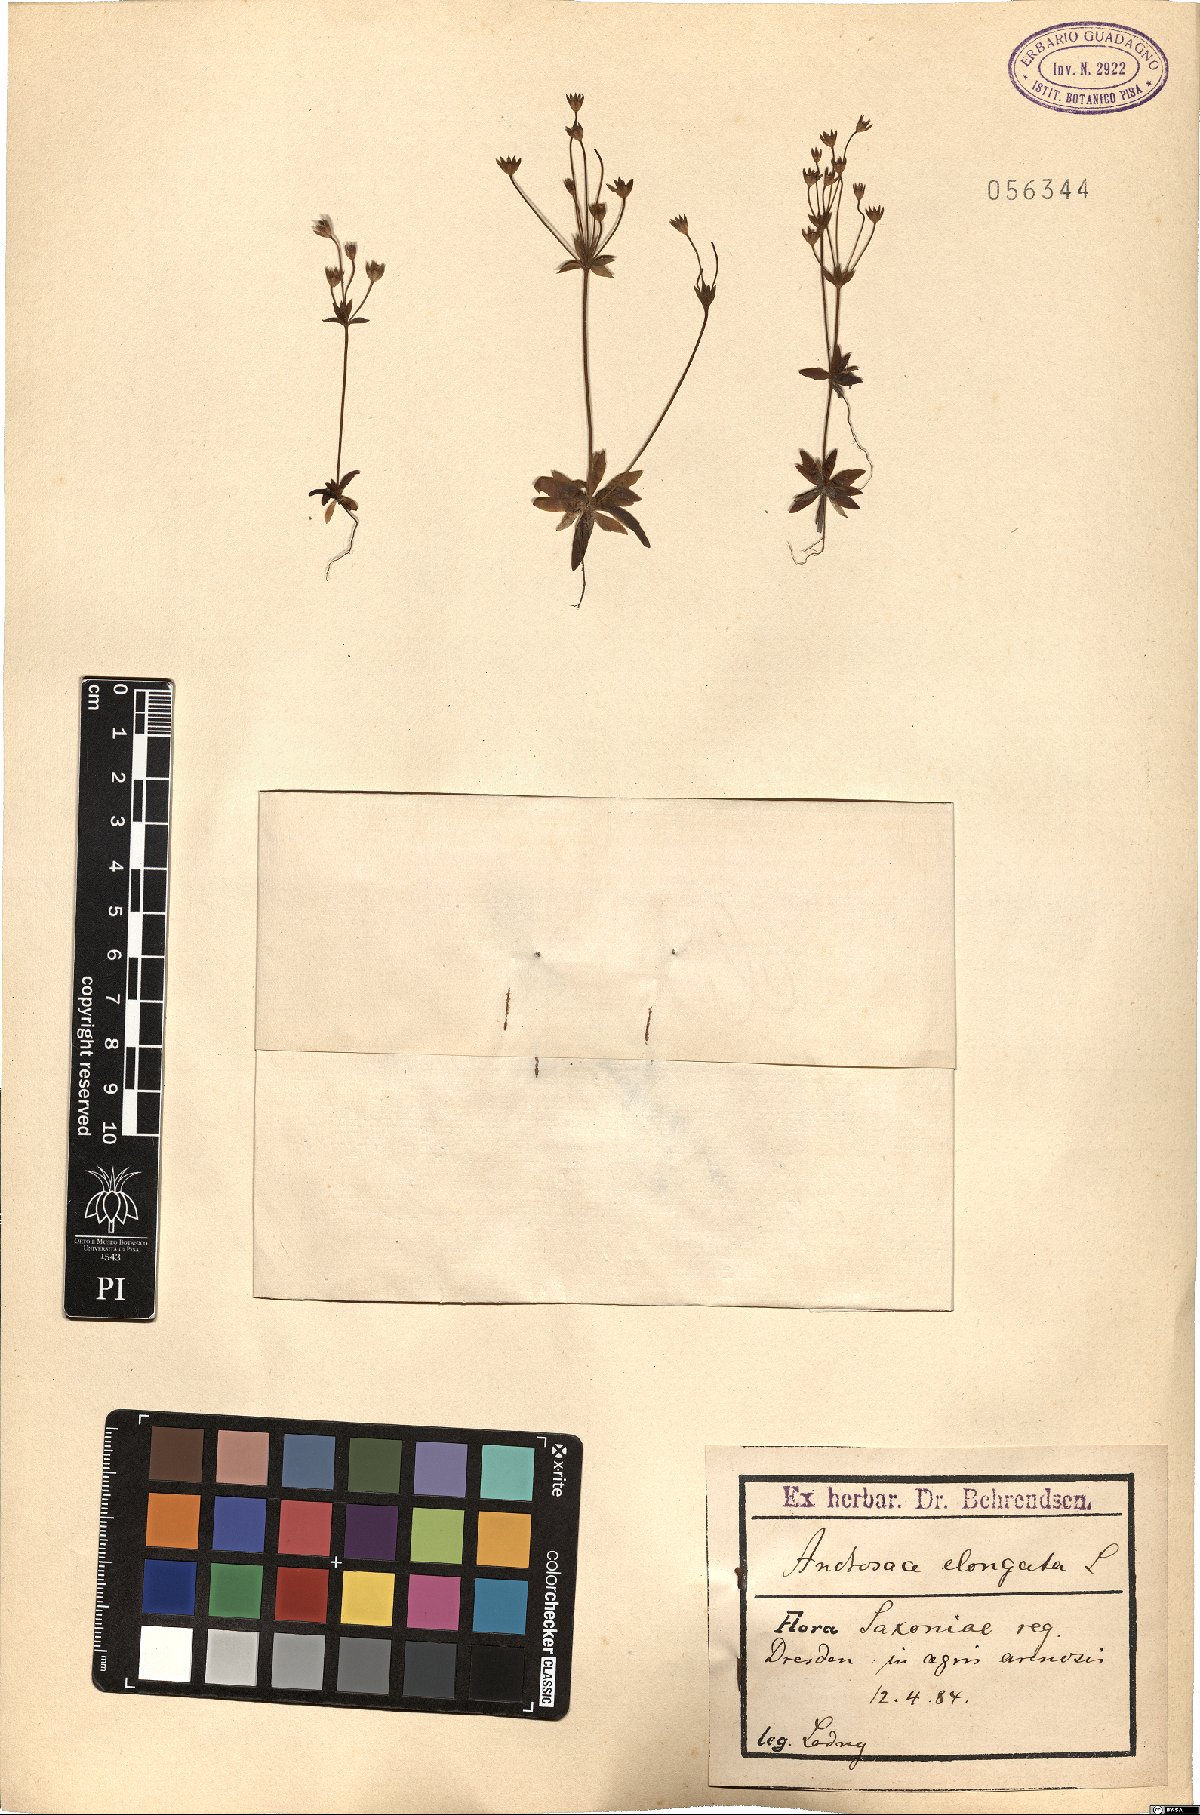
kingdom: Plantae
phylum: Tracheophyta
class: Magnoliopsida
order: Ericales
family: Primulaceae
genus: Androsace
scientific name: Androsace elongata
